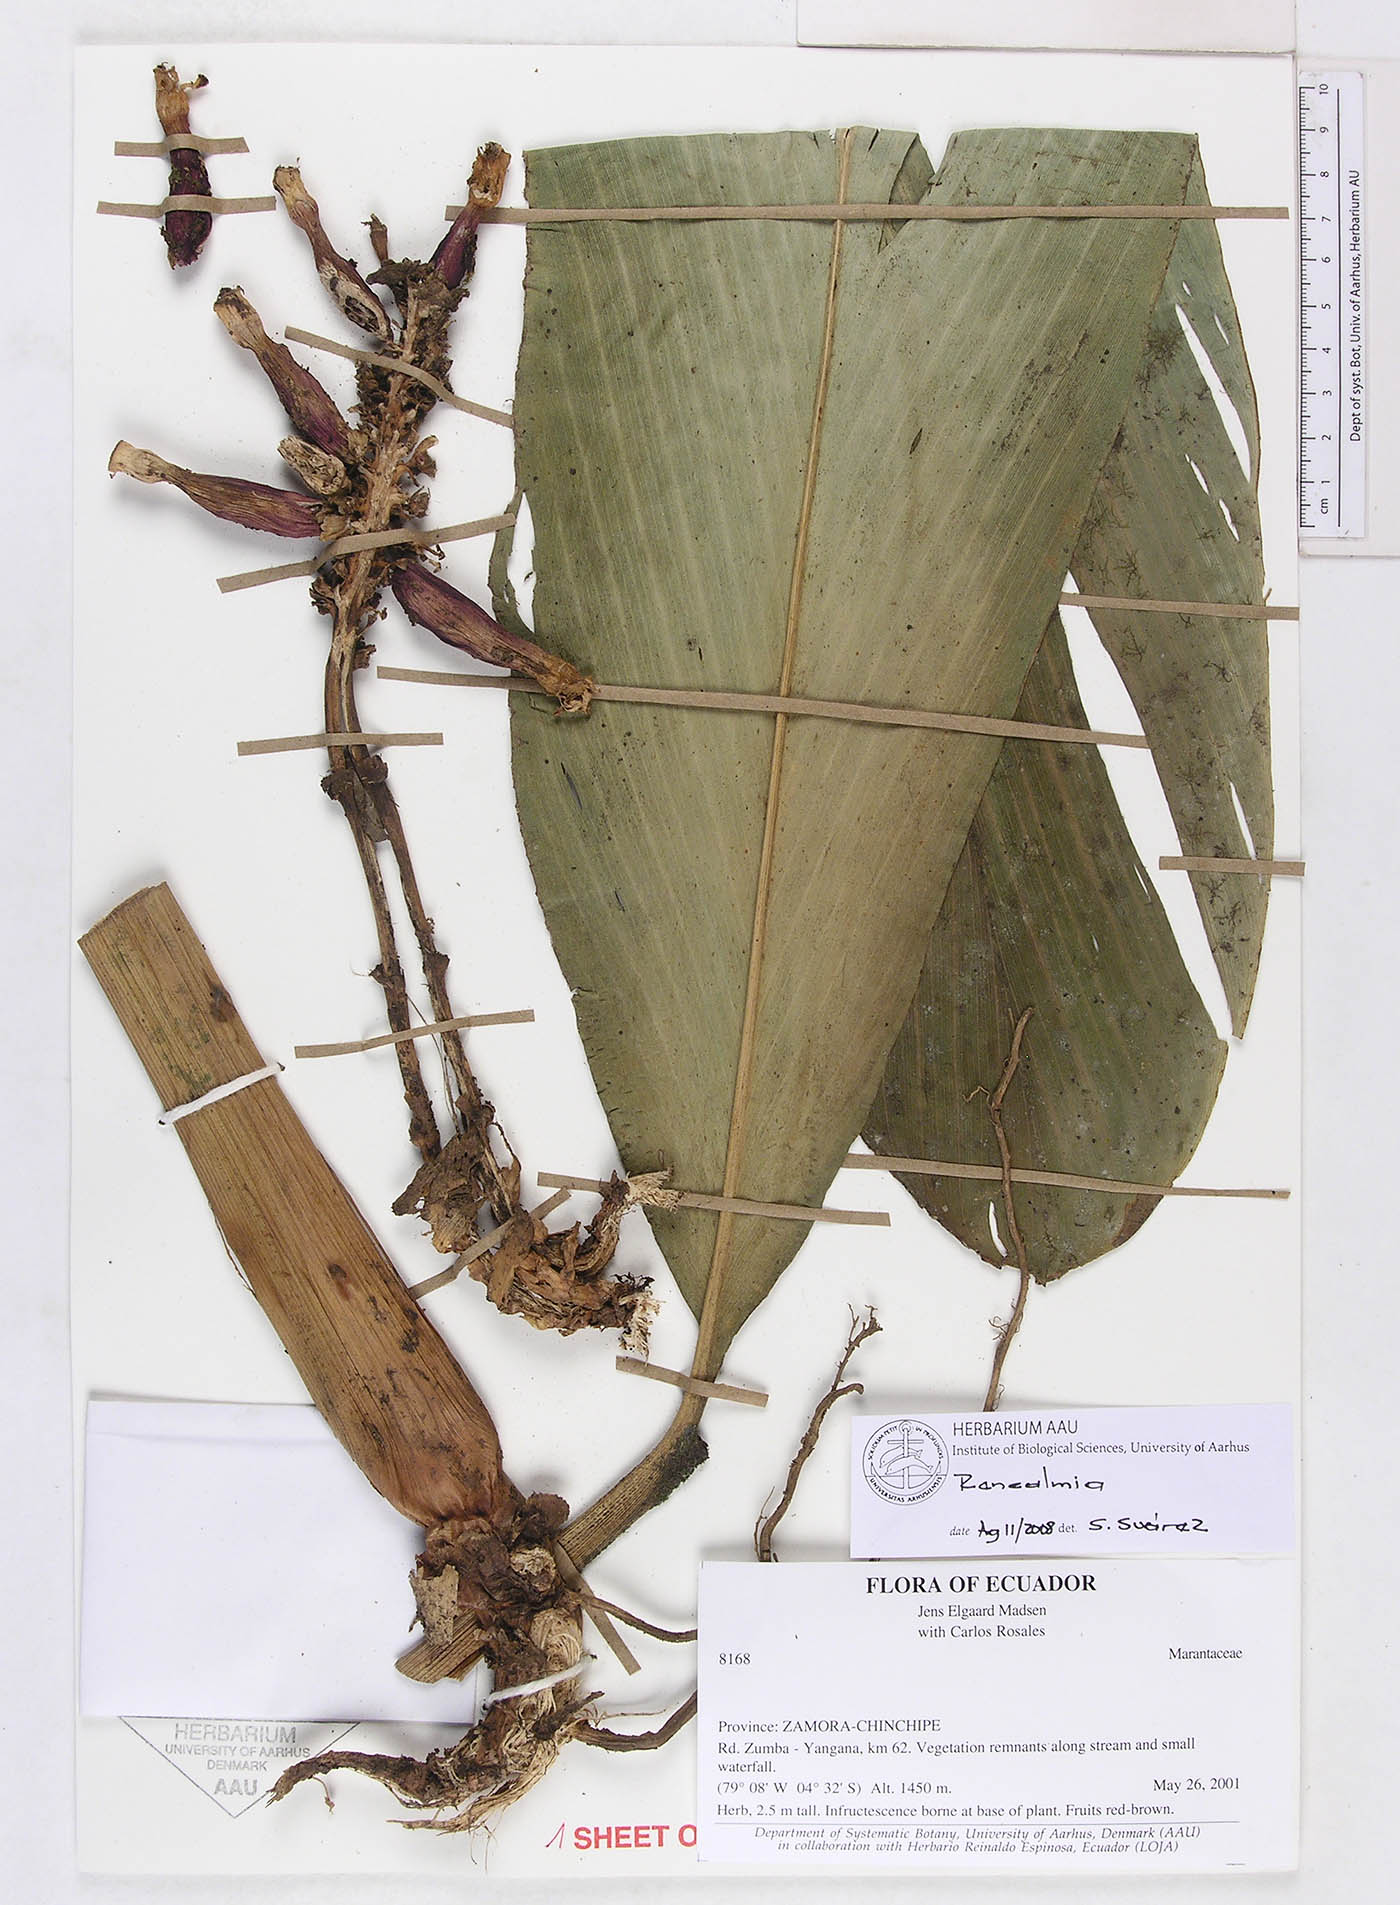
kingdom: Plantae
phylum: Tracheophyta
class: Liliopsida
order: Zingiberales
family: Zingiberaceae
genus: Renealmia
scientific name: Renealmia thyrsoidea
